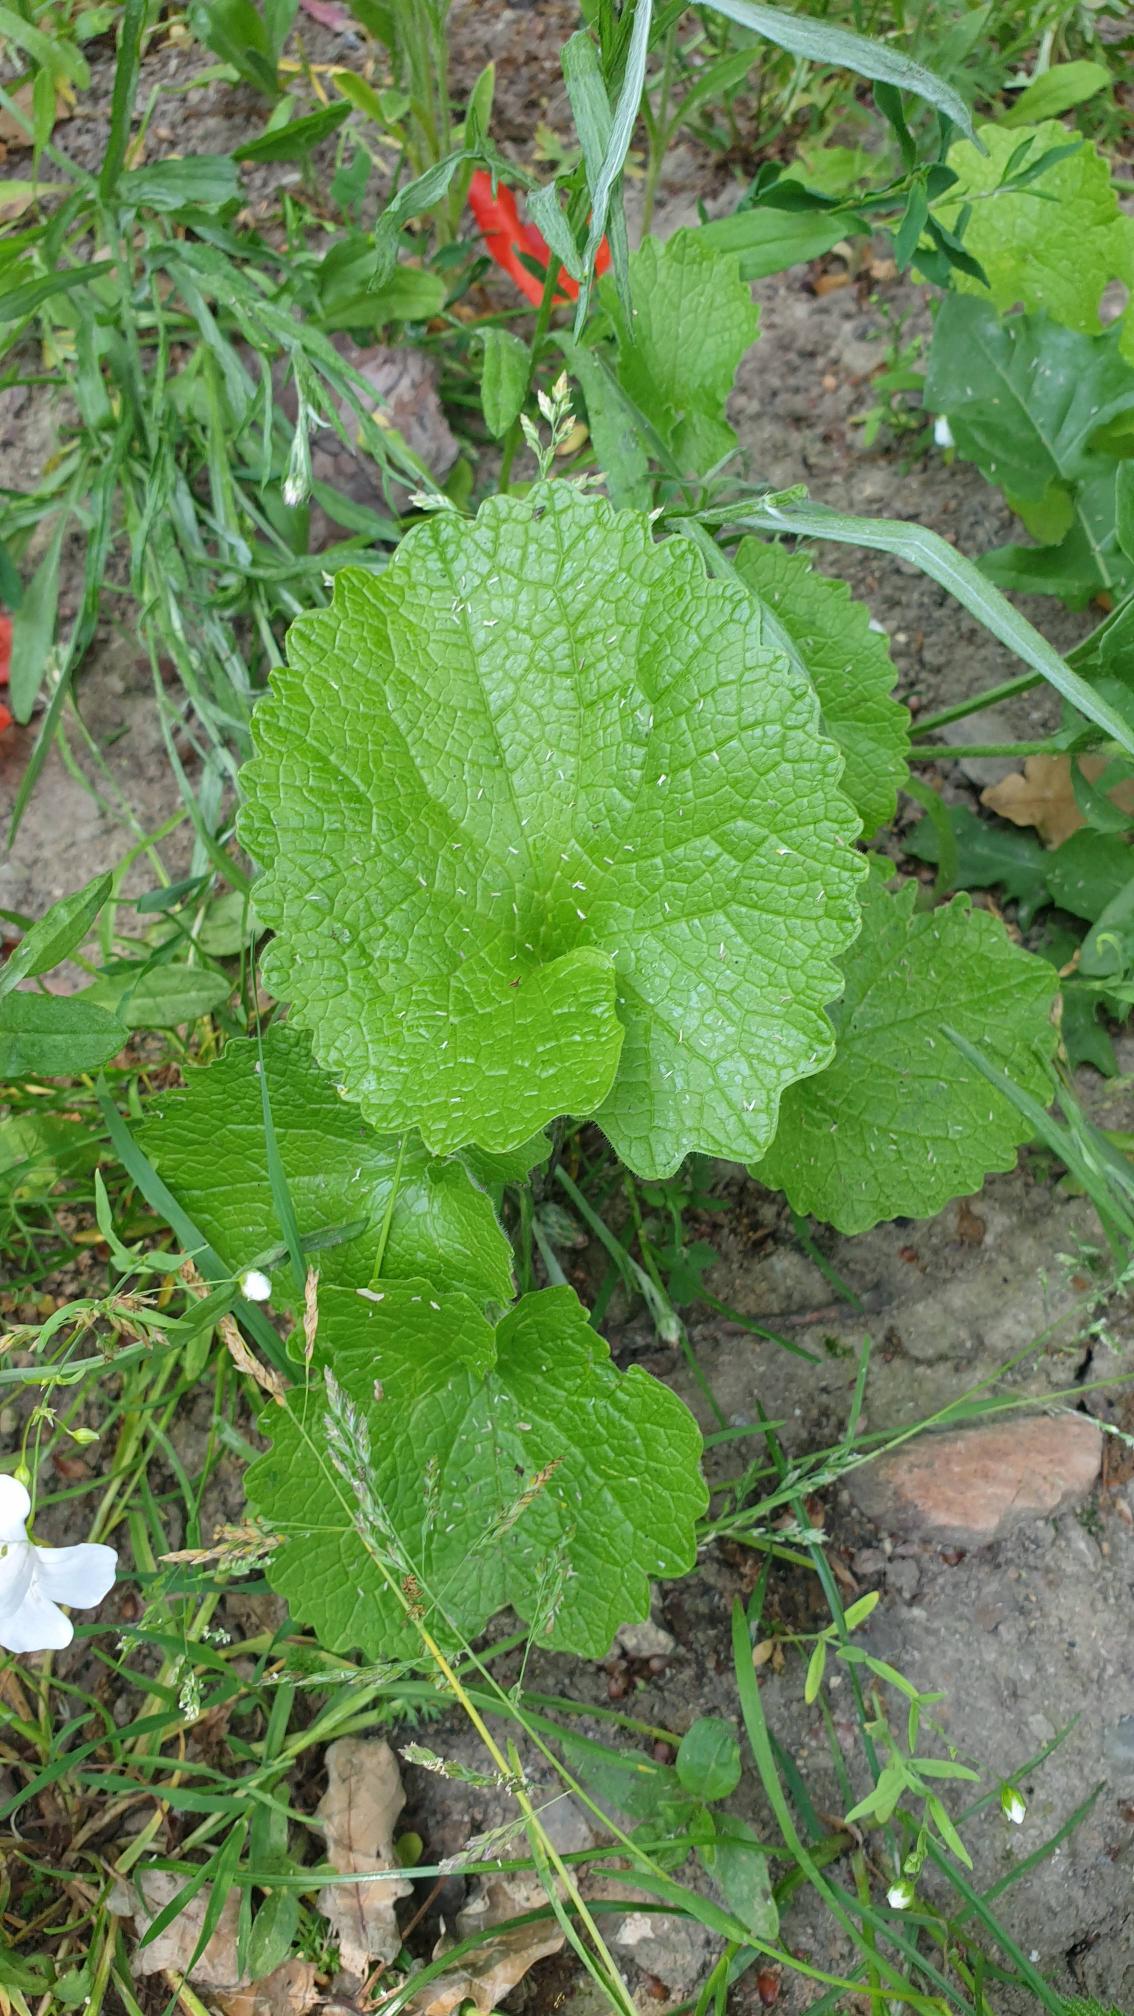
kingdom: Plantae
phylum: Tracheophyta
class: Magnoliopsida
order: Brassicales
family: Brassicaceae
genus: Alliaria
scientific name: Alliaria petiolata
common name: Løgkarse
